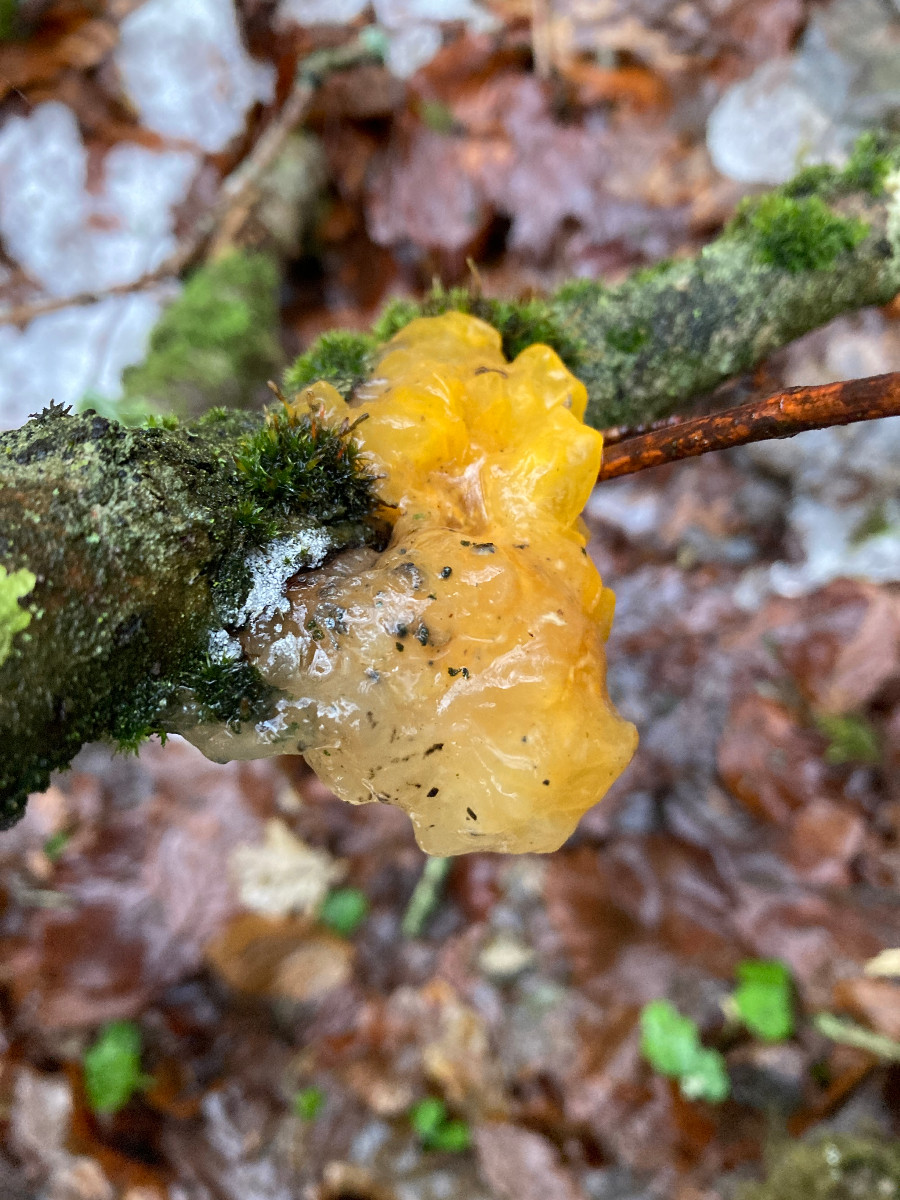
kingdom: Fungi
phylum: Basidiomycota
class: Tremellomycetes
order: Tremellales
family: Tremellaceae
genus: Tremella
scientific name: Tremella mesenterica
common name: gul bævresvamp
